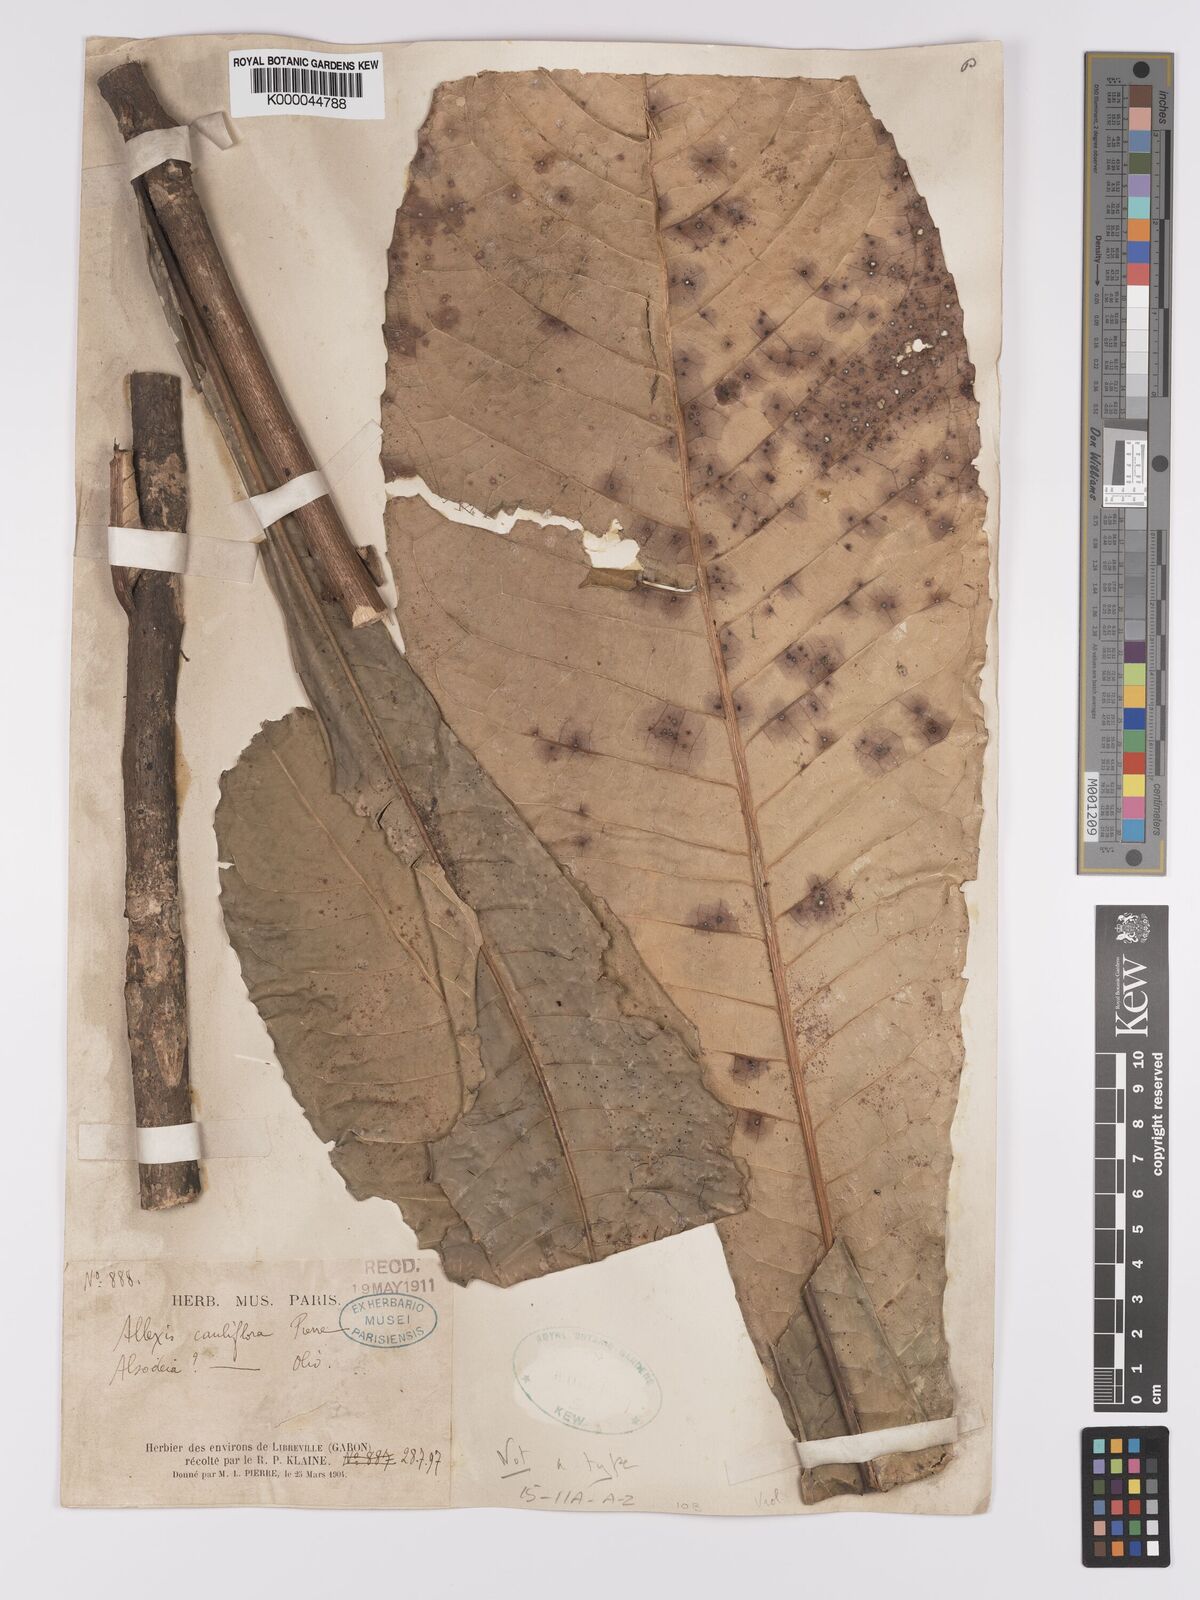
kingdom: Plantae
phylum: Tracheophyta
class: Magnoliopsida
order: Malpighiales
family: Violaceae
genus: Allexis
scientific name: Allexis cauliflora
